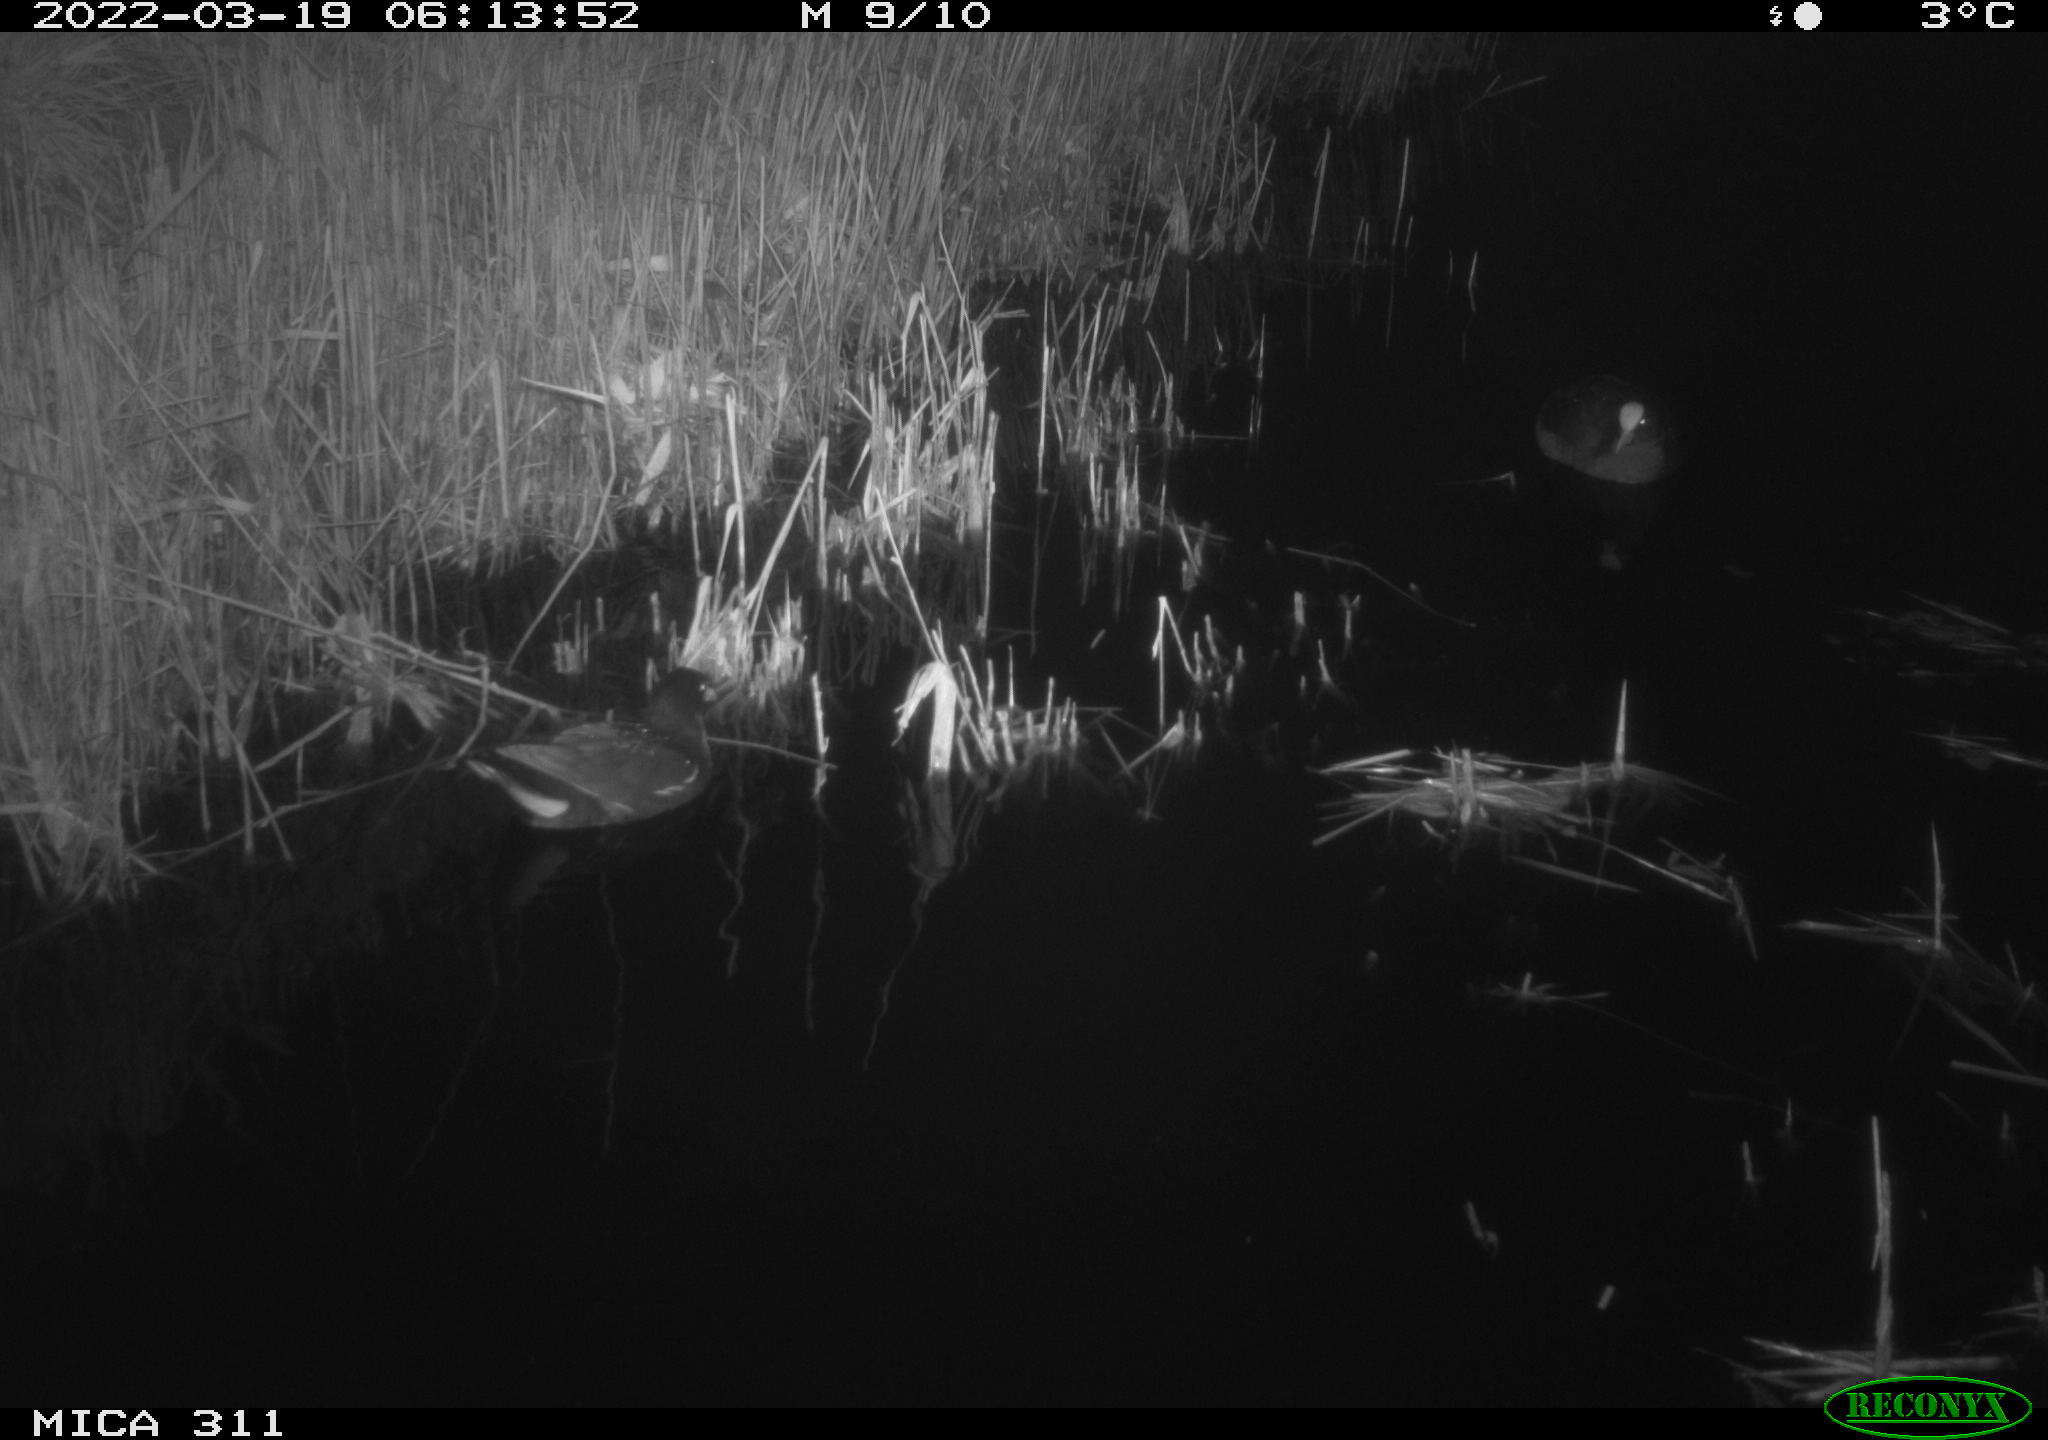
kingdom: Animalia
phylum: Chordata
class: Aves
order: Gruiformes
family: Rallidae
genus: Fulica
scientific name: Fulica atra
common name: Eurasian coot
